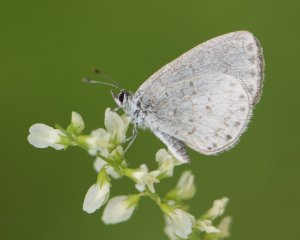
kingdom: Animalia
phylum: Arthropoda
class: Insecta
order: Lepidoptera
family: Lycaenidae
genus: Cyaniris
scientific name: Cyaniris neglecta
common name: Summer Azure
